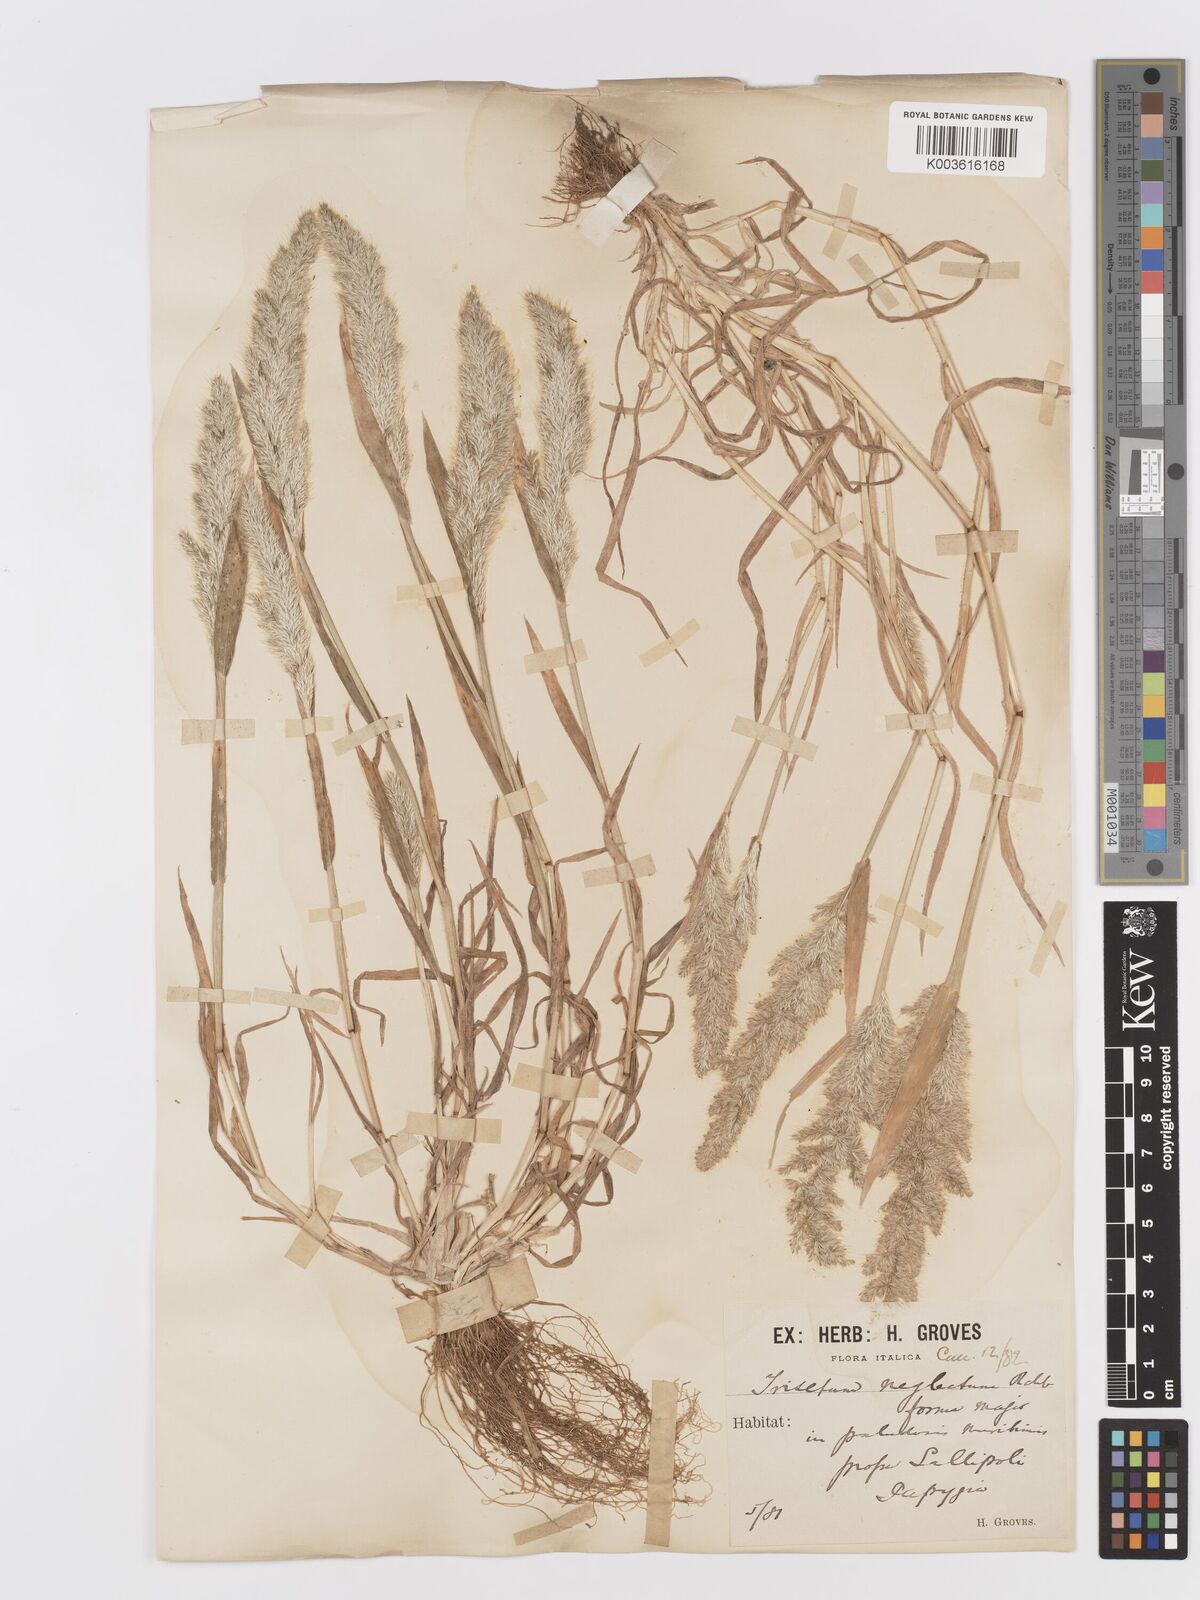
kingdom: Plantae
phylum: Tracheophyta
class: Liliopsida
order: Poales
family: Poaceae
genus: Trisetaria
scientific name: Trisetaria panicea
